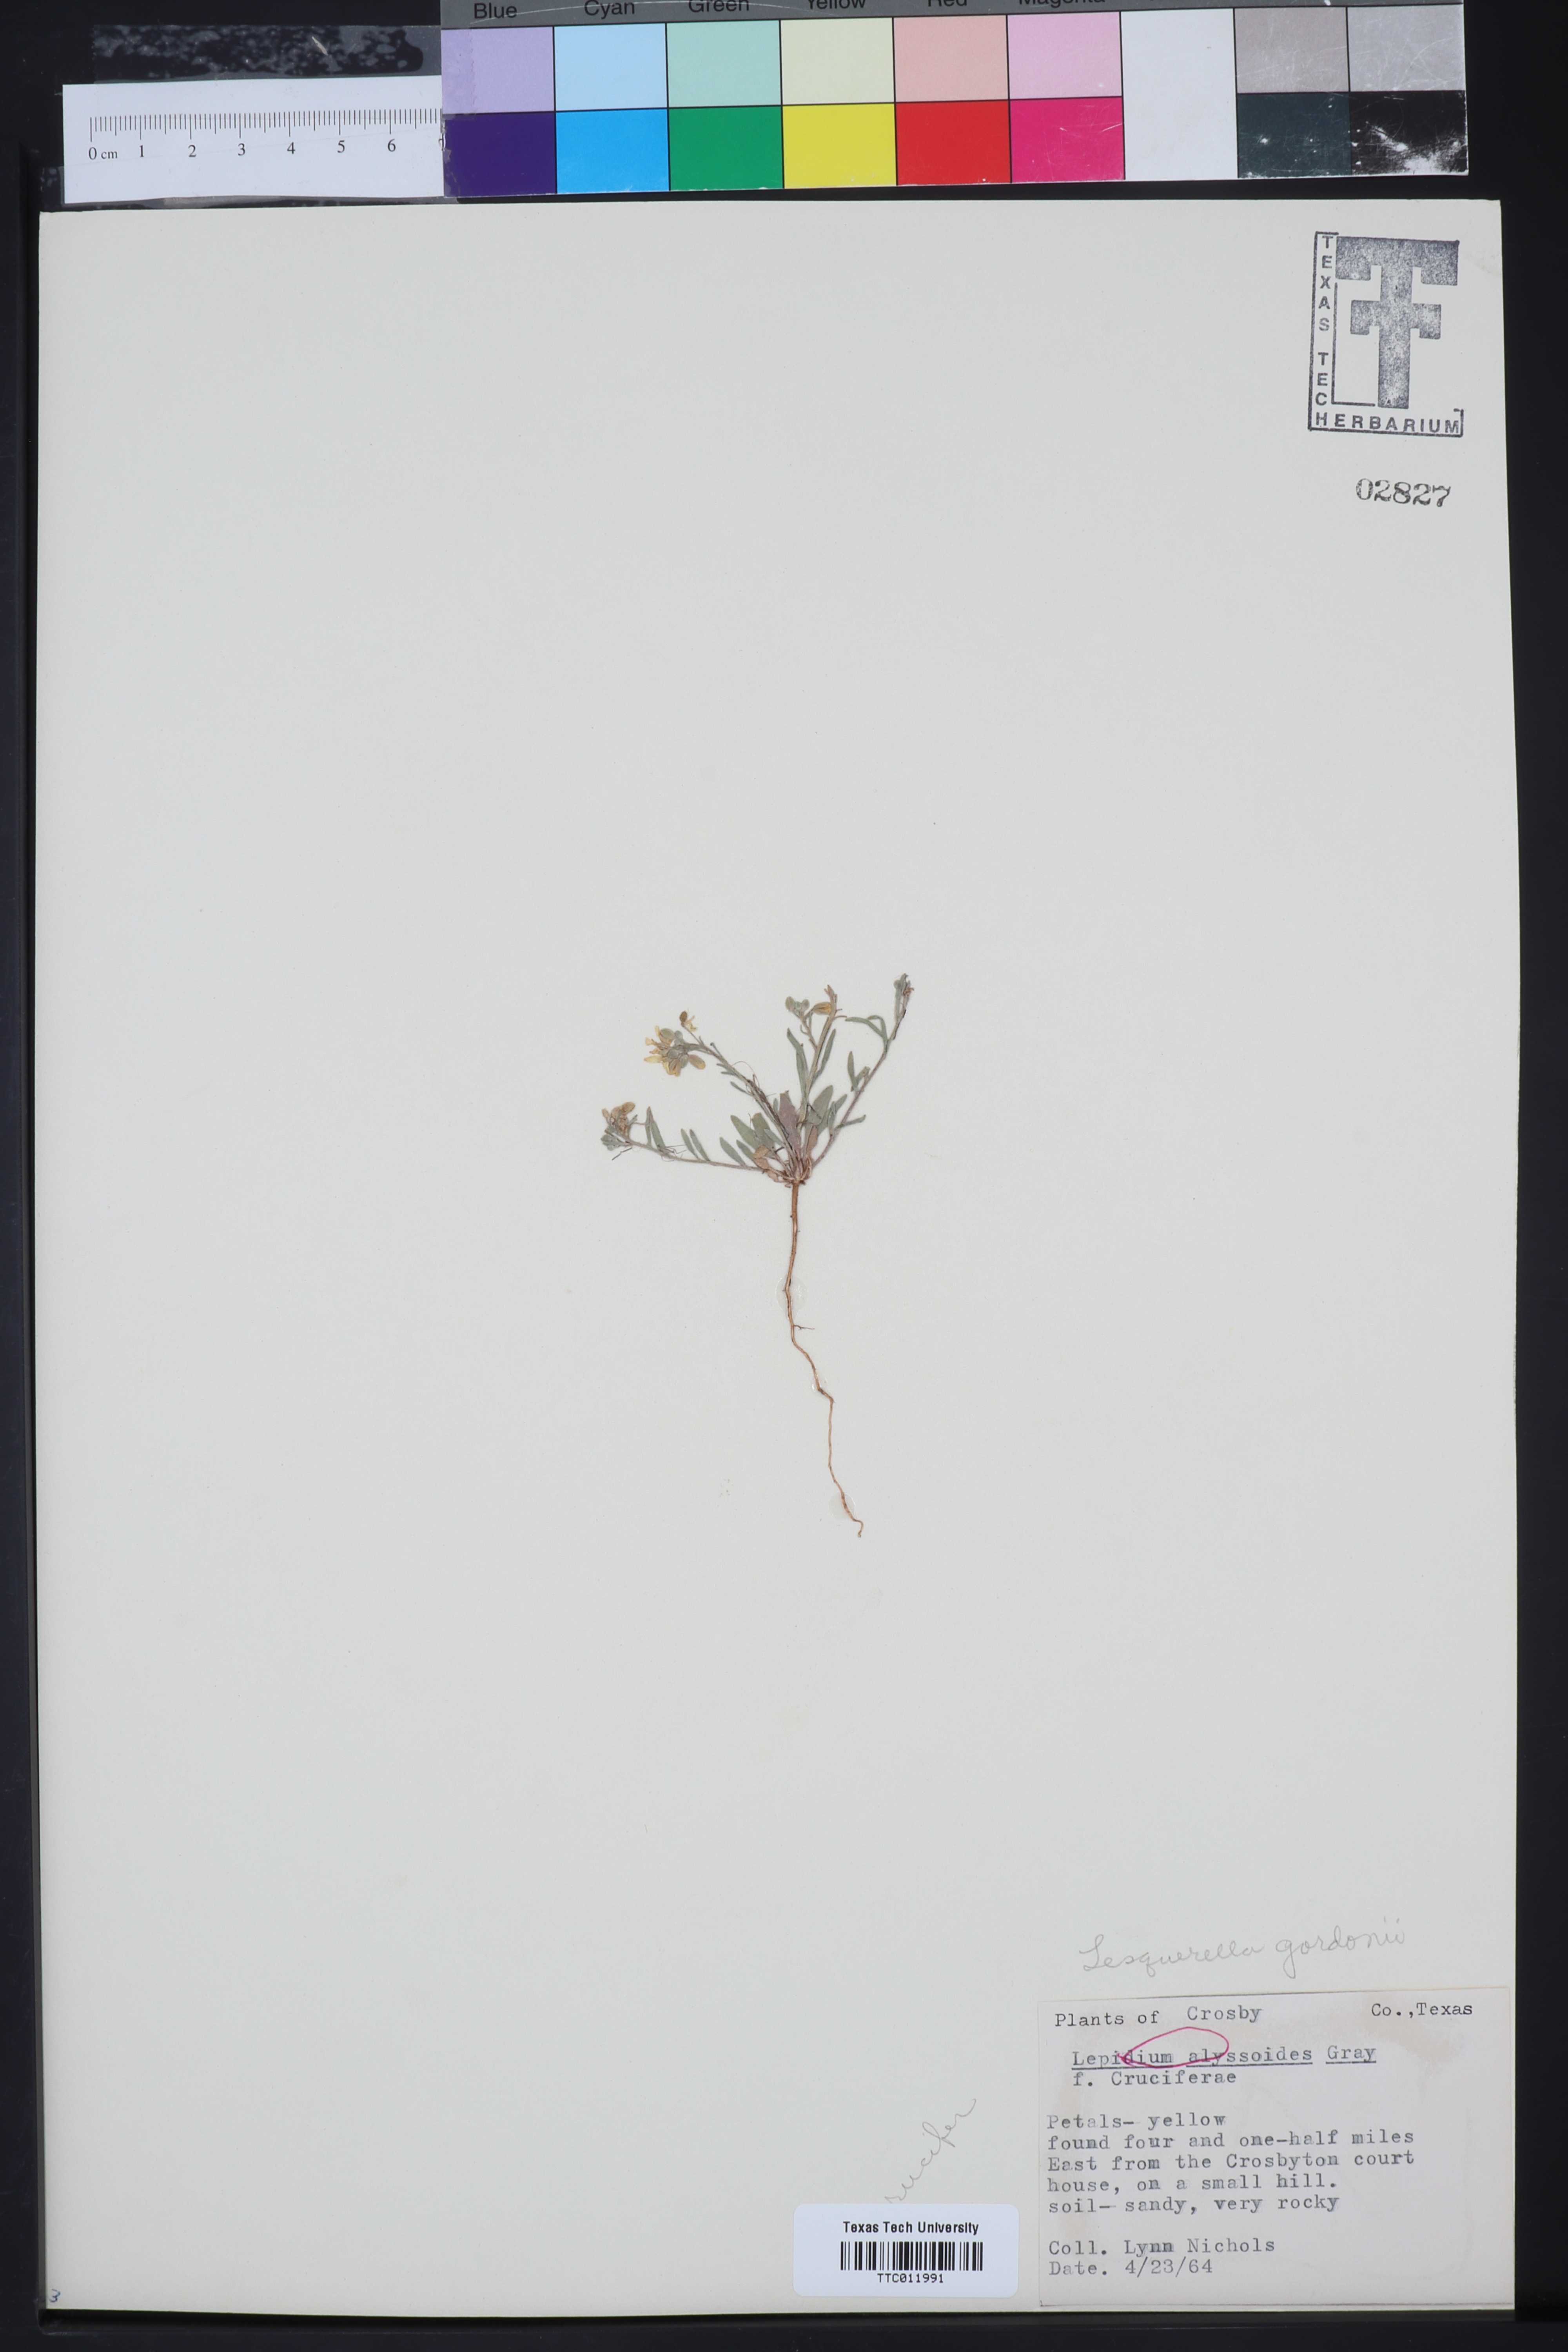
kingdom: Plantae
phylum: Tracheophyta
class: Magnoliopsida
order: Brassicales
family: Brassicaceae
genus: Physaria
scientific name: Physaria gordonii
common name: Gordon's bladderpod
